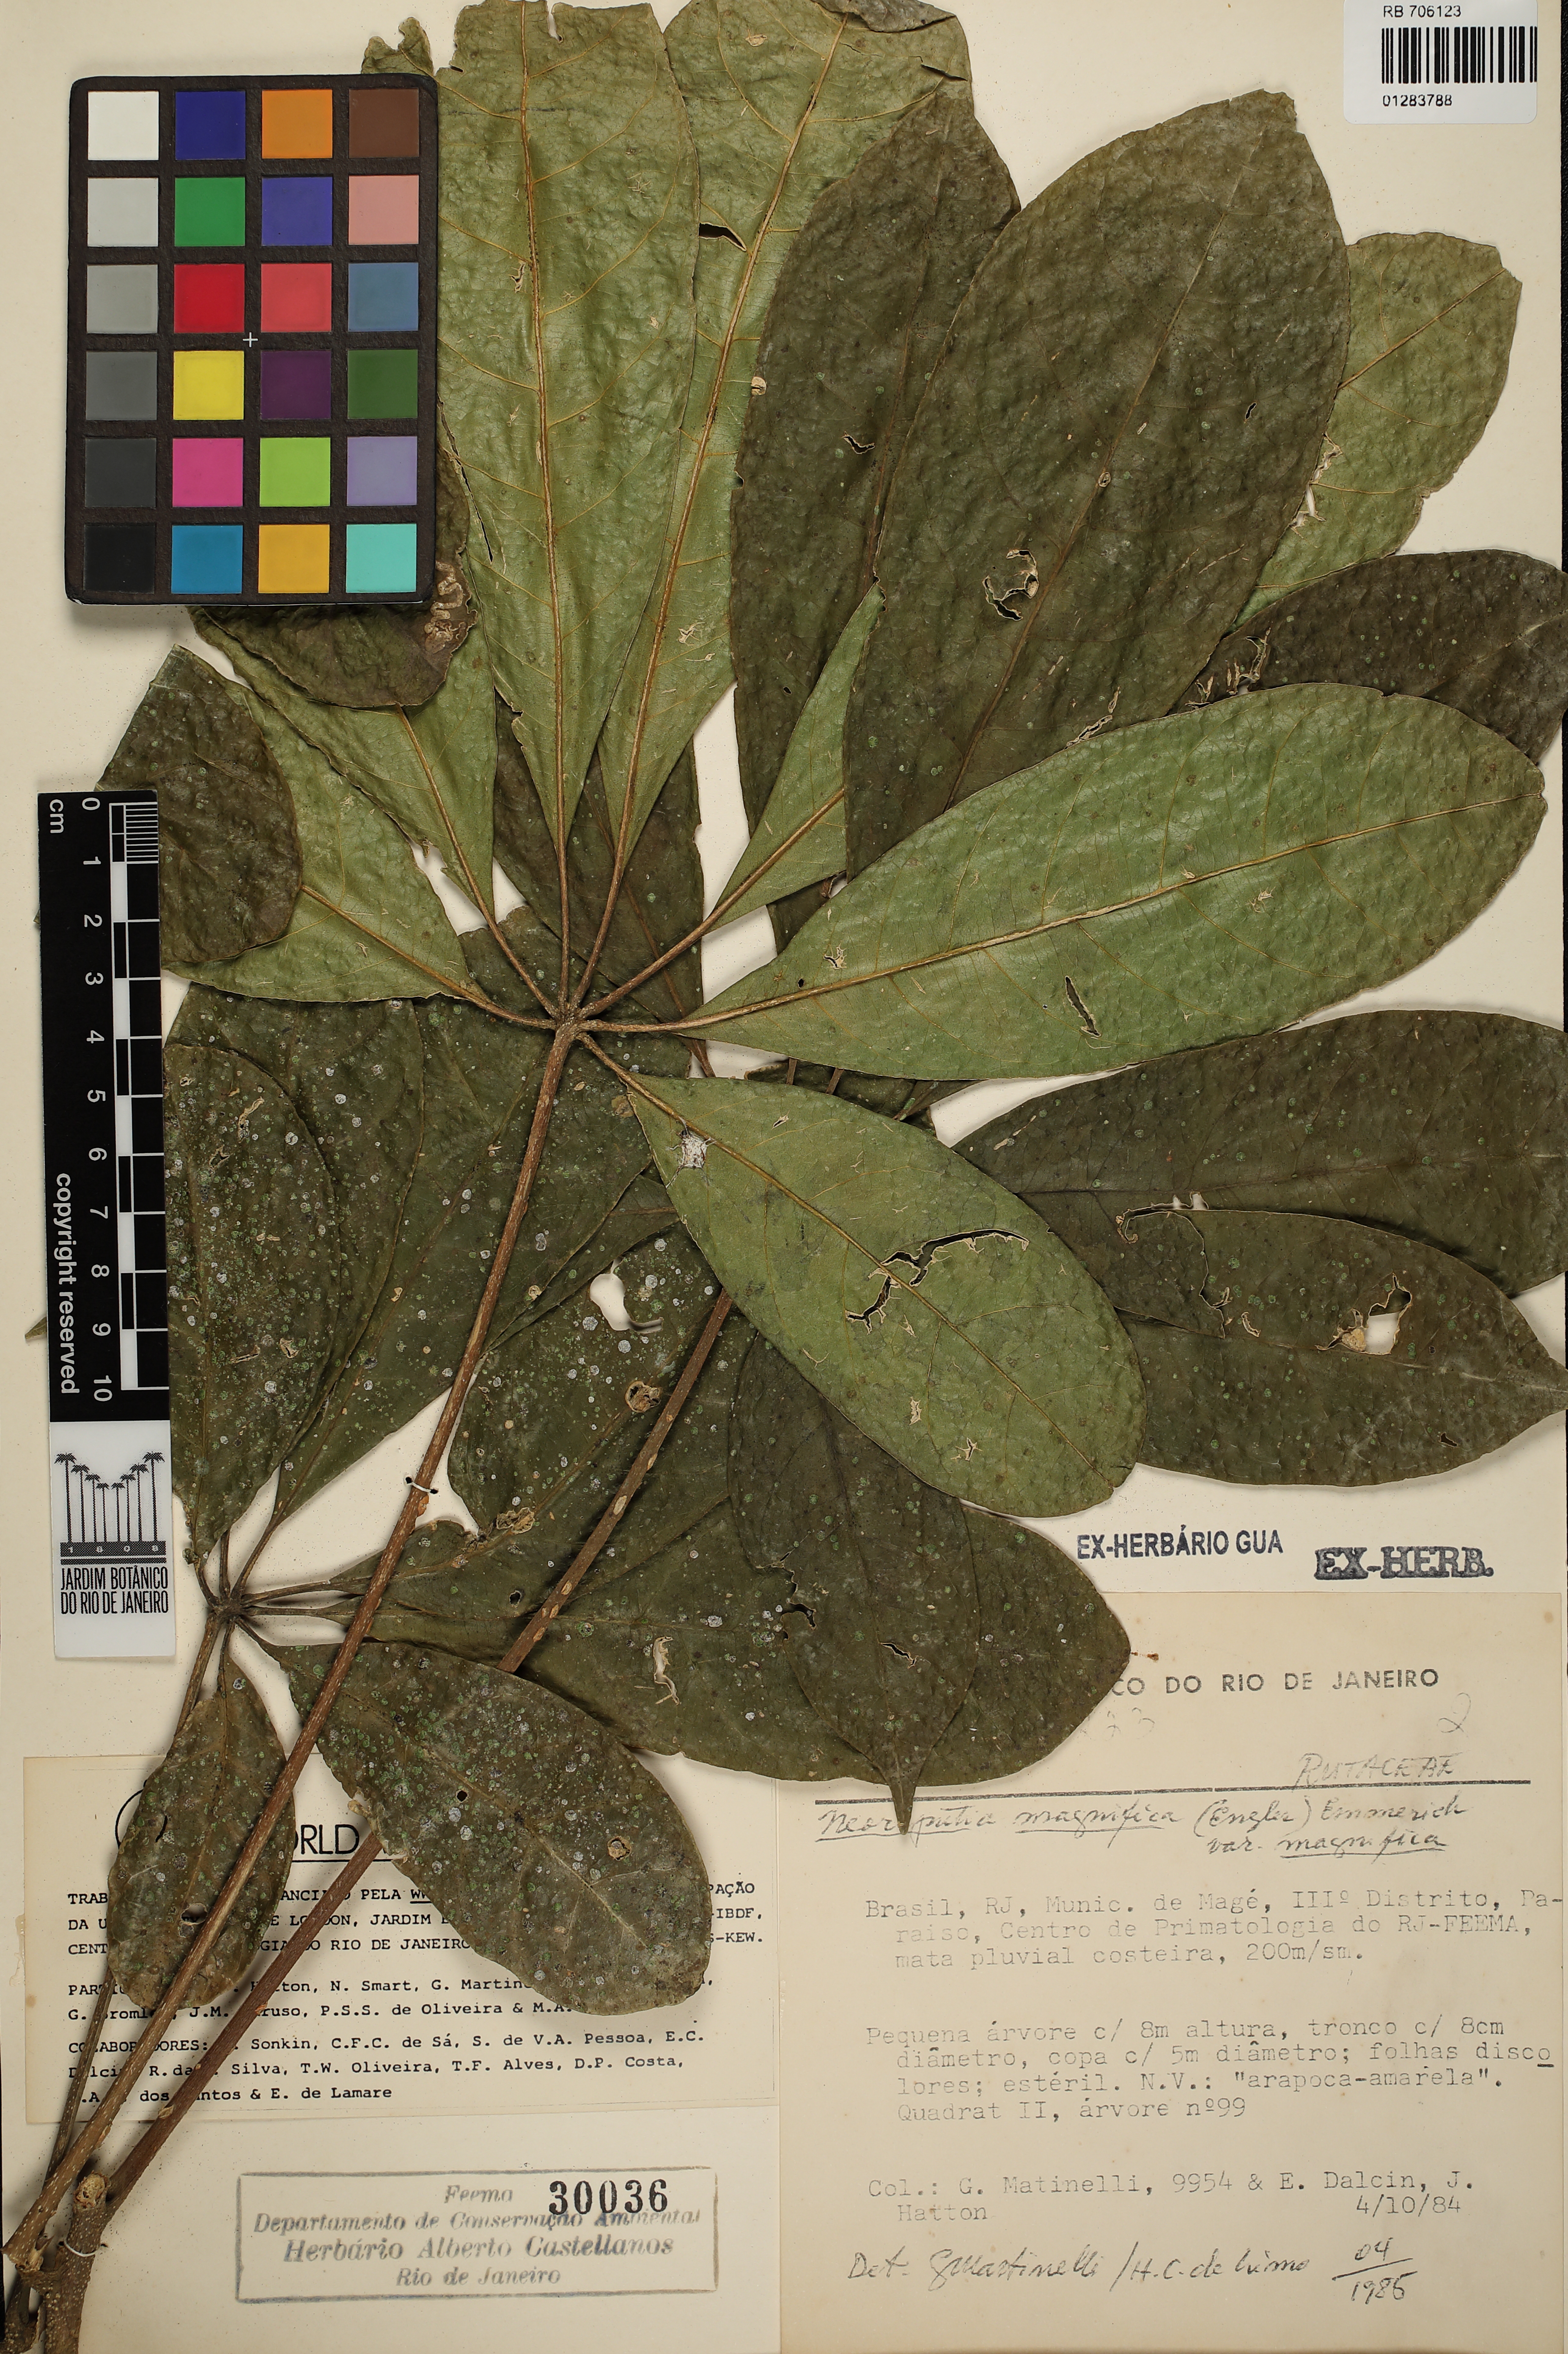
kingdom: Plantae
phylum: Tracheophyta
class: Magnoliopsida
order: Sapindales
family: Rutaceae
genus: Neoraputia
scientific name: Neoraputia magnifica
